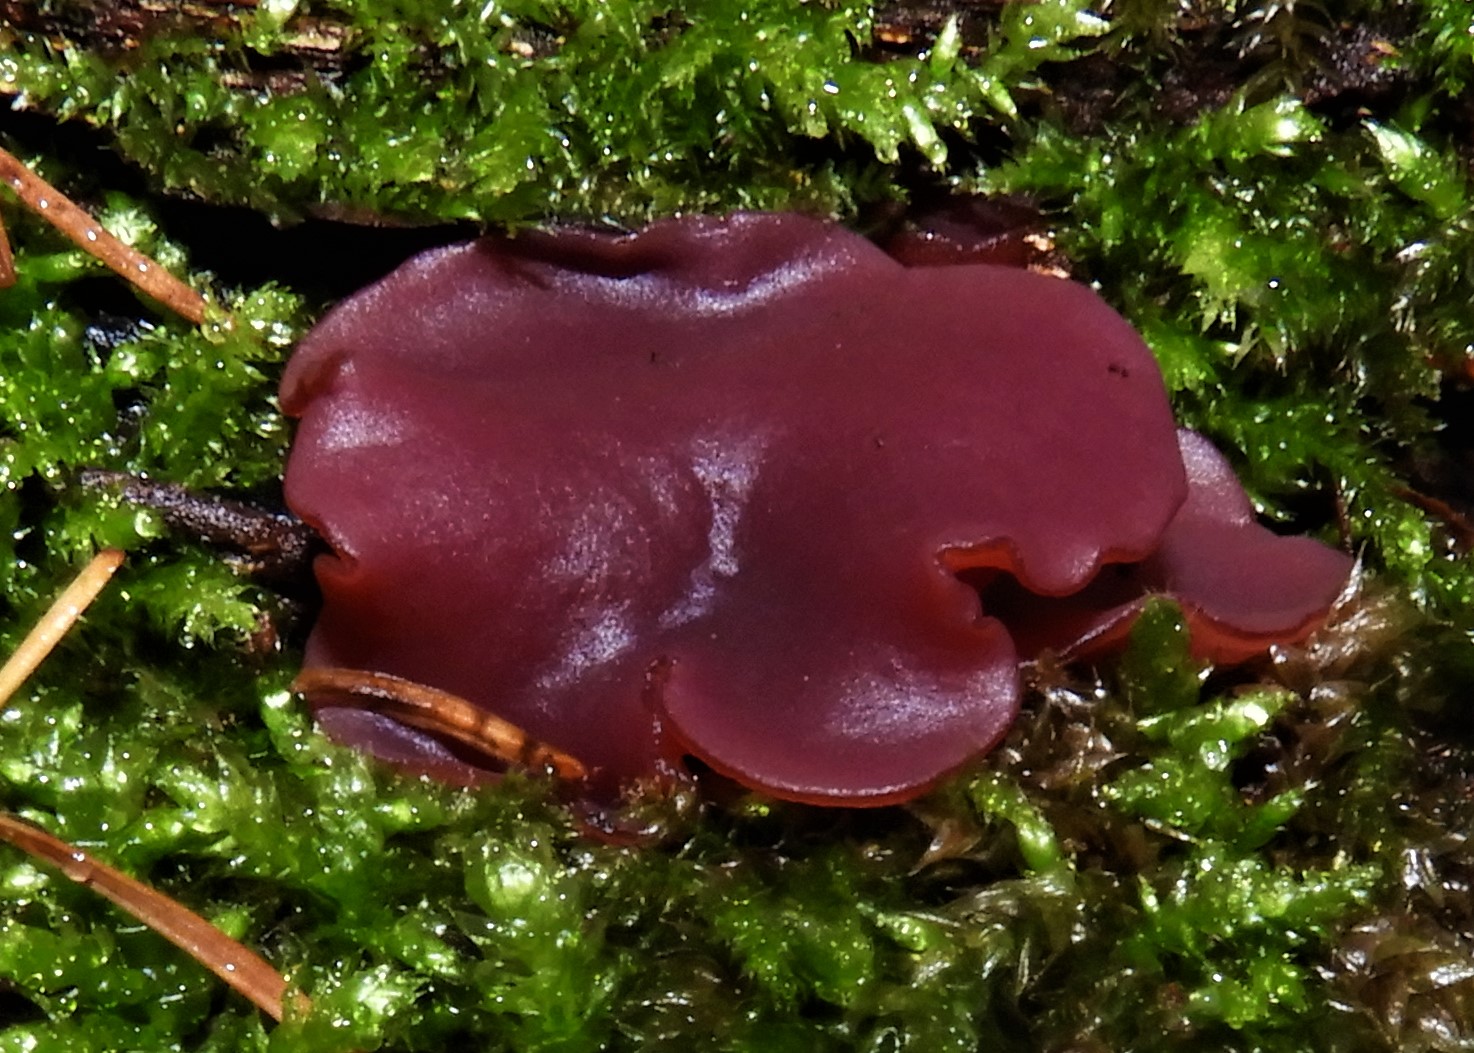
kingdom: Fungi
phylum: Ascomycota
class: Leotiomycetes
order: Helotiales
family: Gelatinodiscaceae
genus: Ascocoryne
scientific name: Ascocoryne cylichnium
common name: stor sejskive
